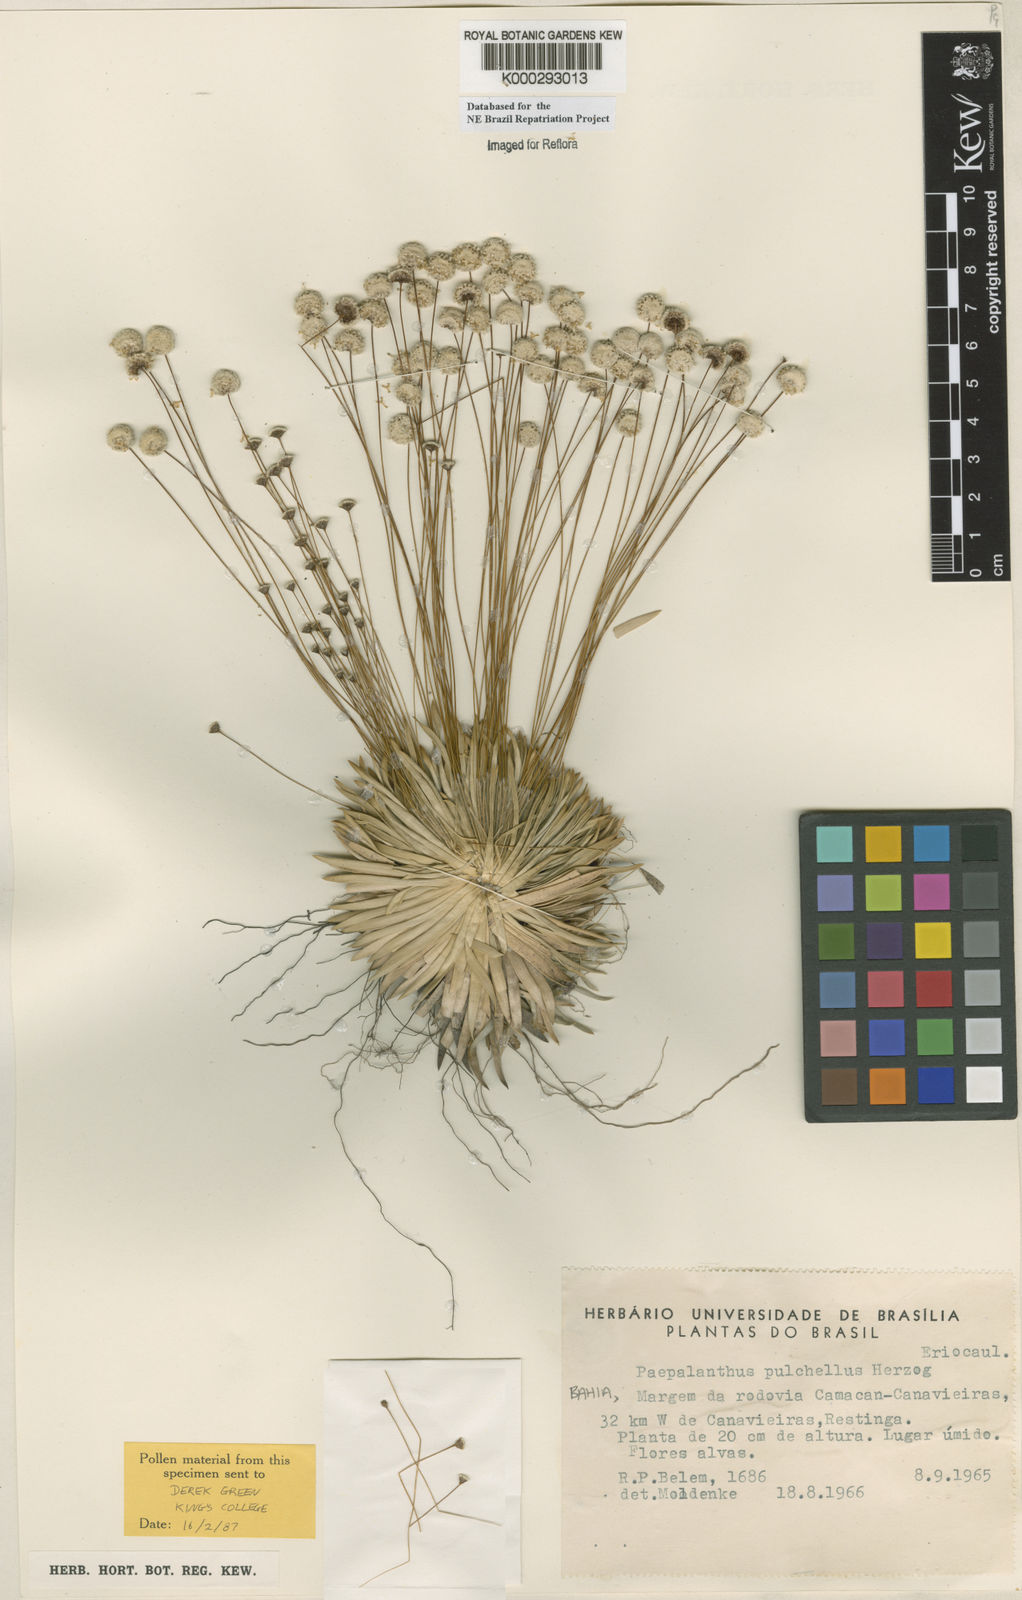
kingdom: Plantae
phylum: Tracheophyta
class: Liliopsida
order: Poales
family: Eriocaulaceae
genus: Paepalanthus
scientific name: Paepalanthus pulchellus
